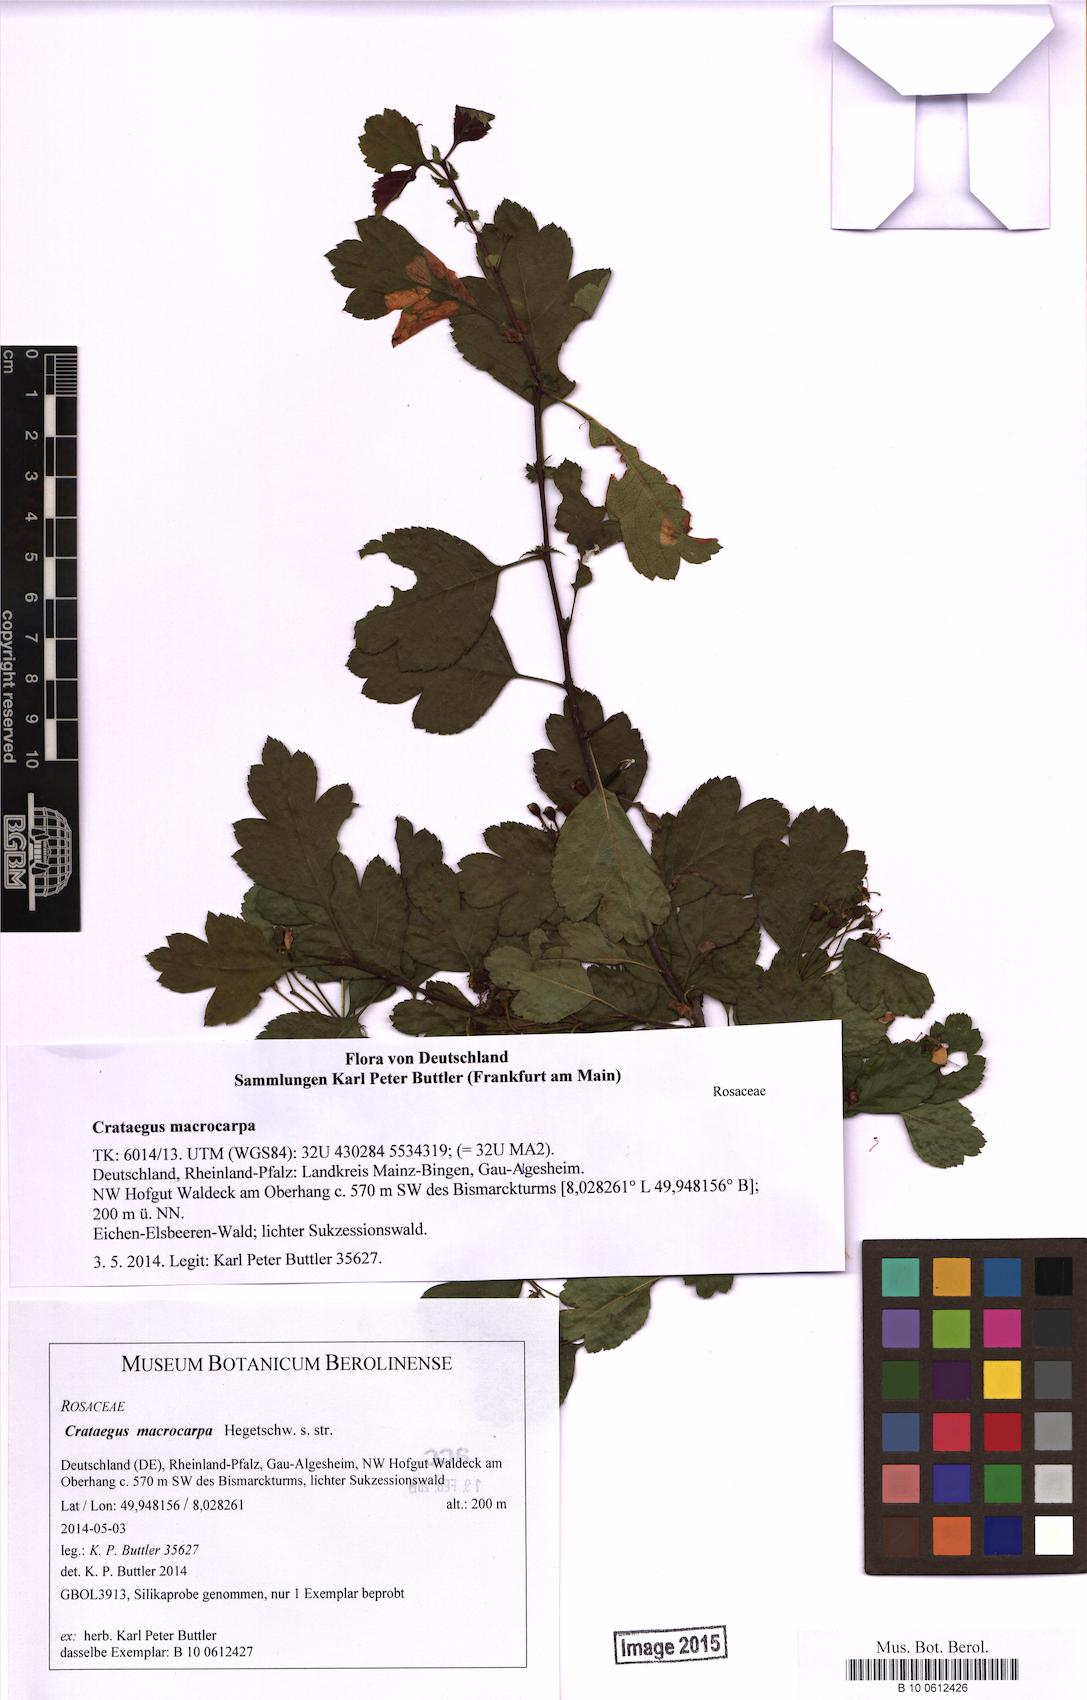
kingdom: Plantae
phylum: Tracheophyta
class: Magnoliopsida
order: Rosales
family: Rosaceae
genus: Crataegus
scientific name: Crataegus macrocarpa
